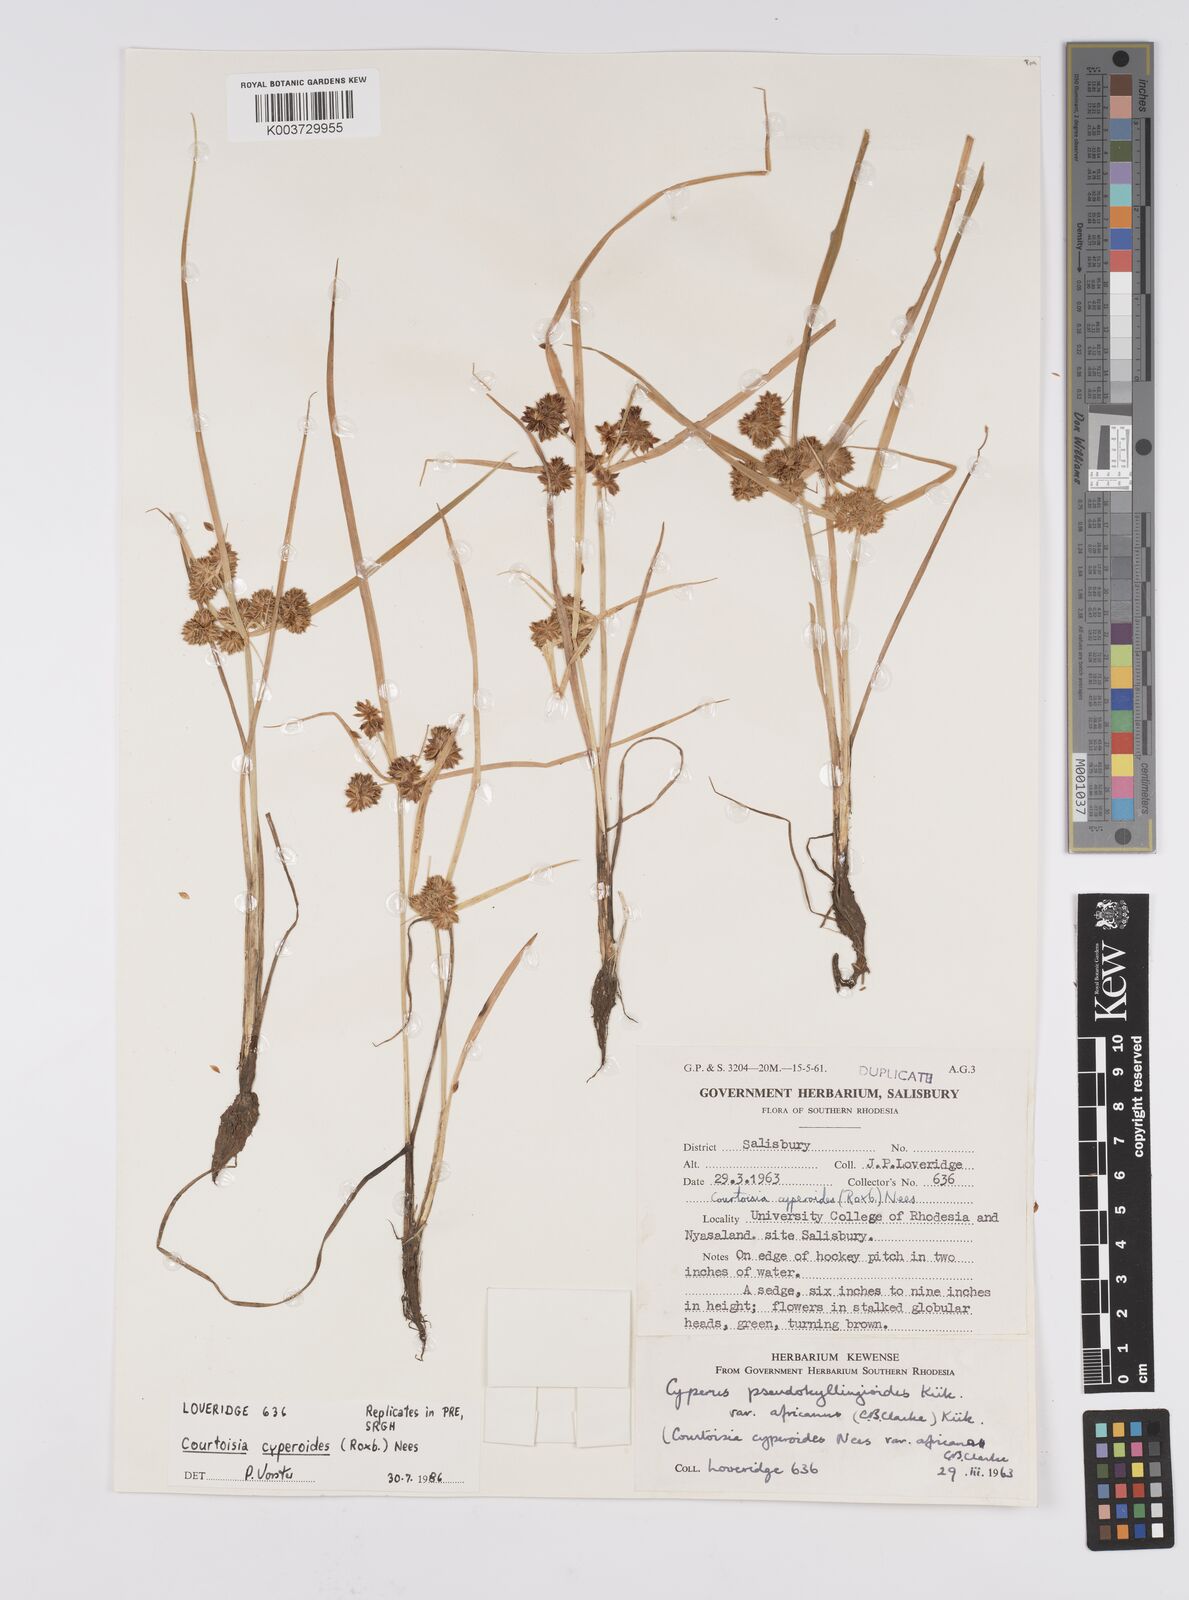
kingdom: Plantae
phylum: Tracheophyta
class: Liliopsida
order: Poales
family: Cyperaceae
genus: Cyperus
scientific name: Cyperus cyperoides
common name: Pacific island flat sedge
